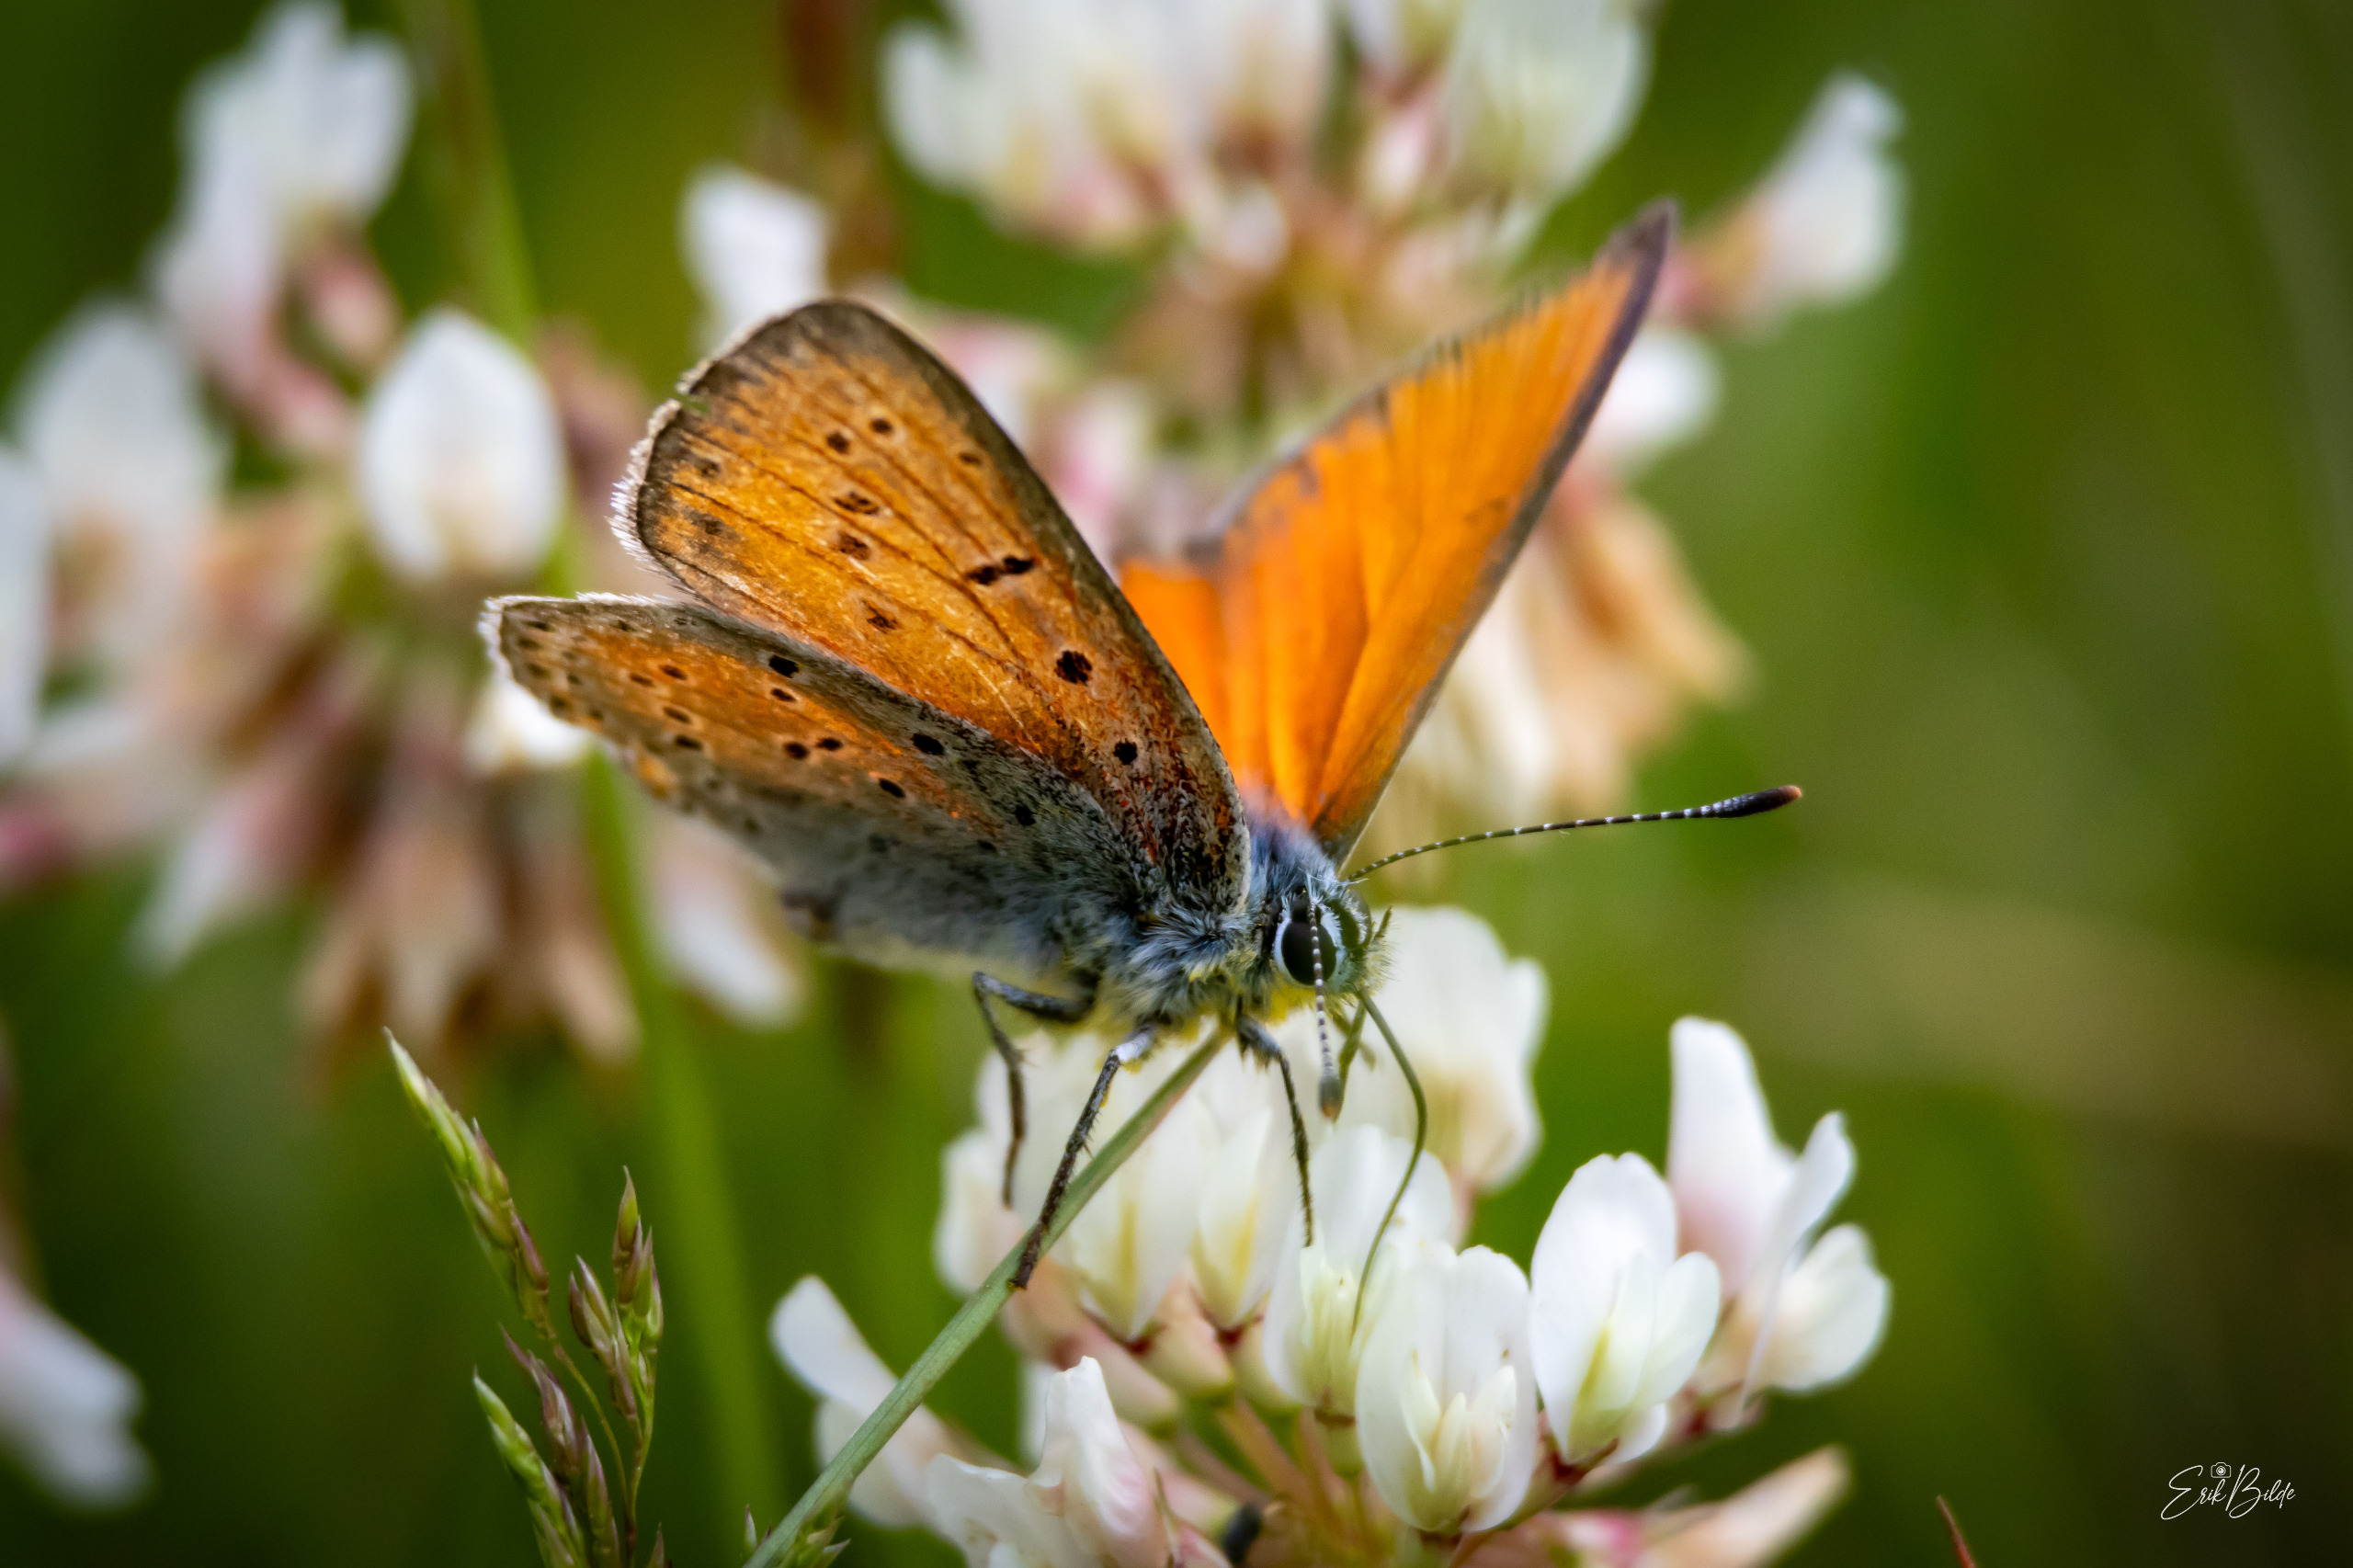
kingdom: Animalia
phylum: Arthropoda
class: Insecta
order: Lepidoptera
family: Lycaenidae
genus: Palaeochrysophanus
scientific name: Palaeochrysophanus hippothoe
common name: Violetrandet ildfugl
